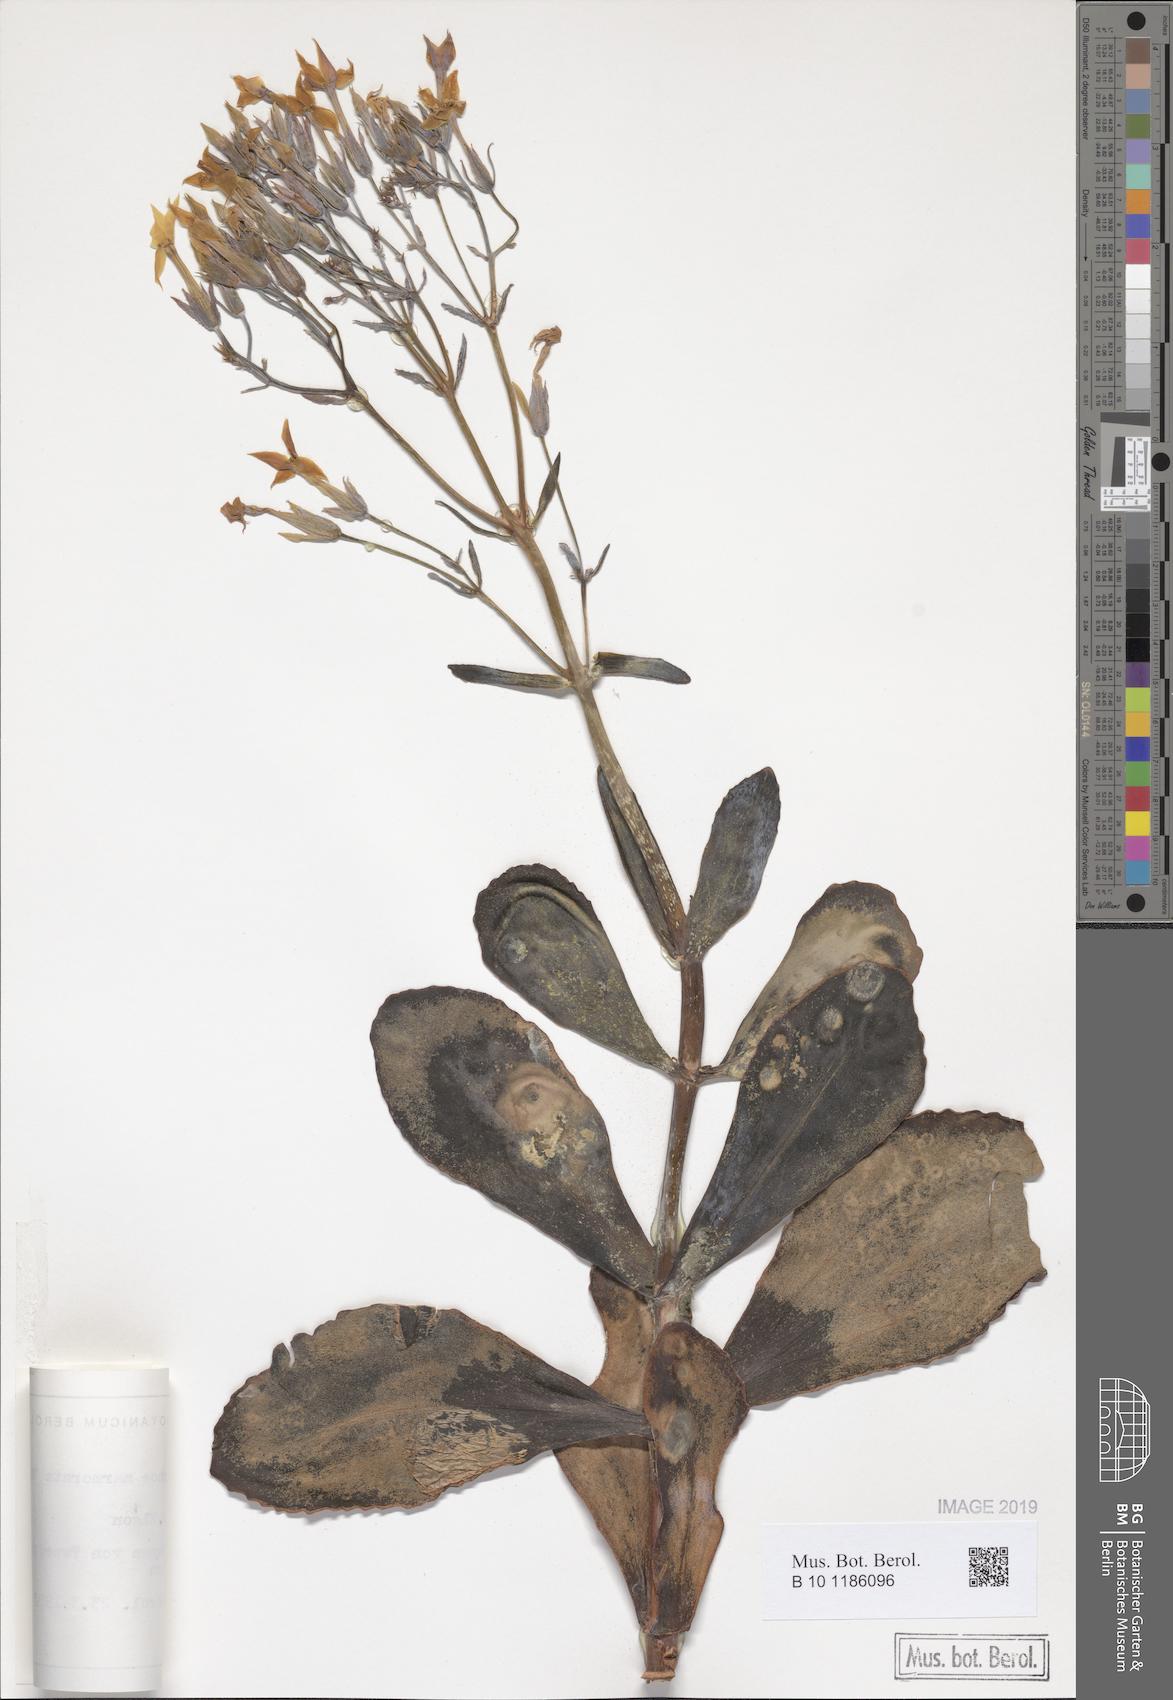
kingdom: Plantae
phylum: Tracheophyta
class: Magnoliopsida
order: Saxifragales
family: Crassulaceae
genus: Kalanchoe
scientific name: Kalanchoe marmorata
